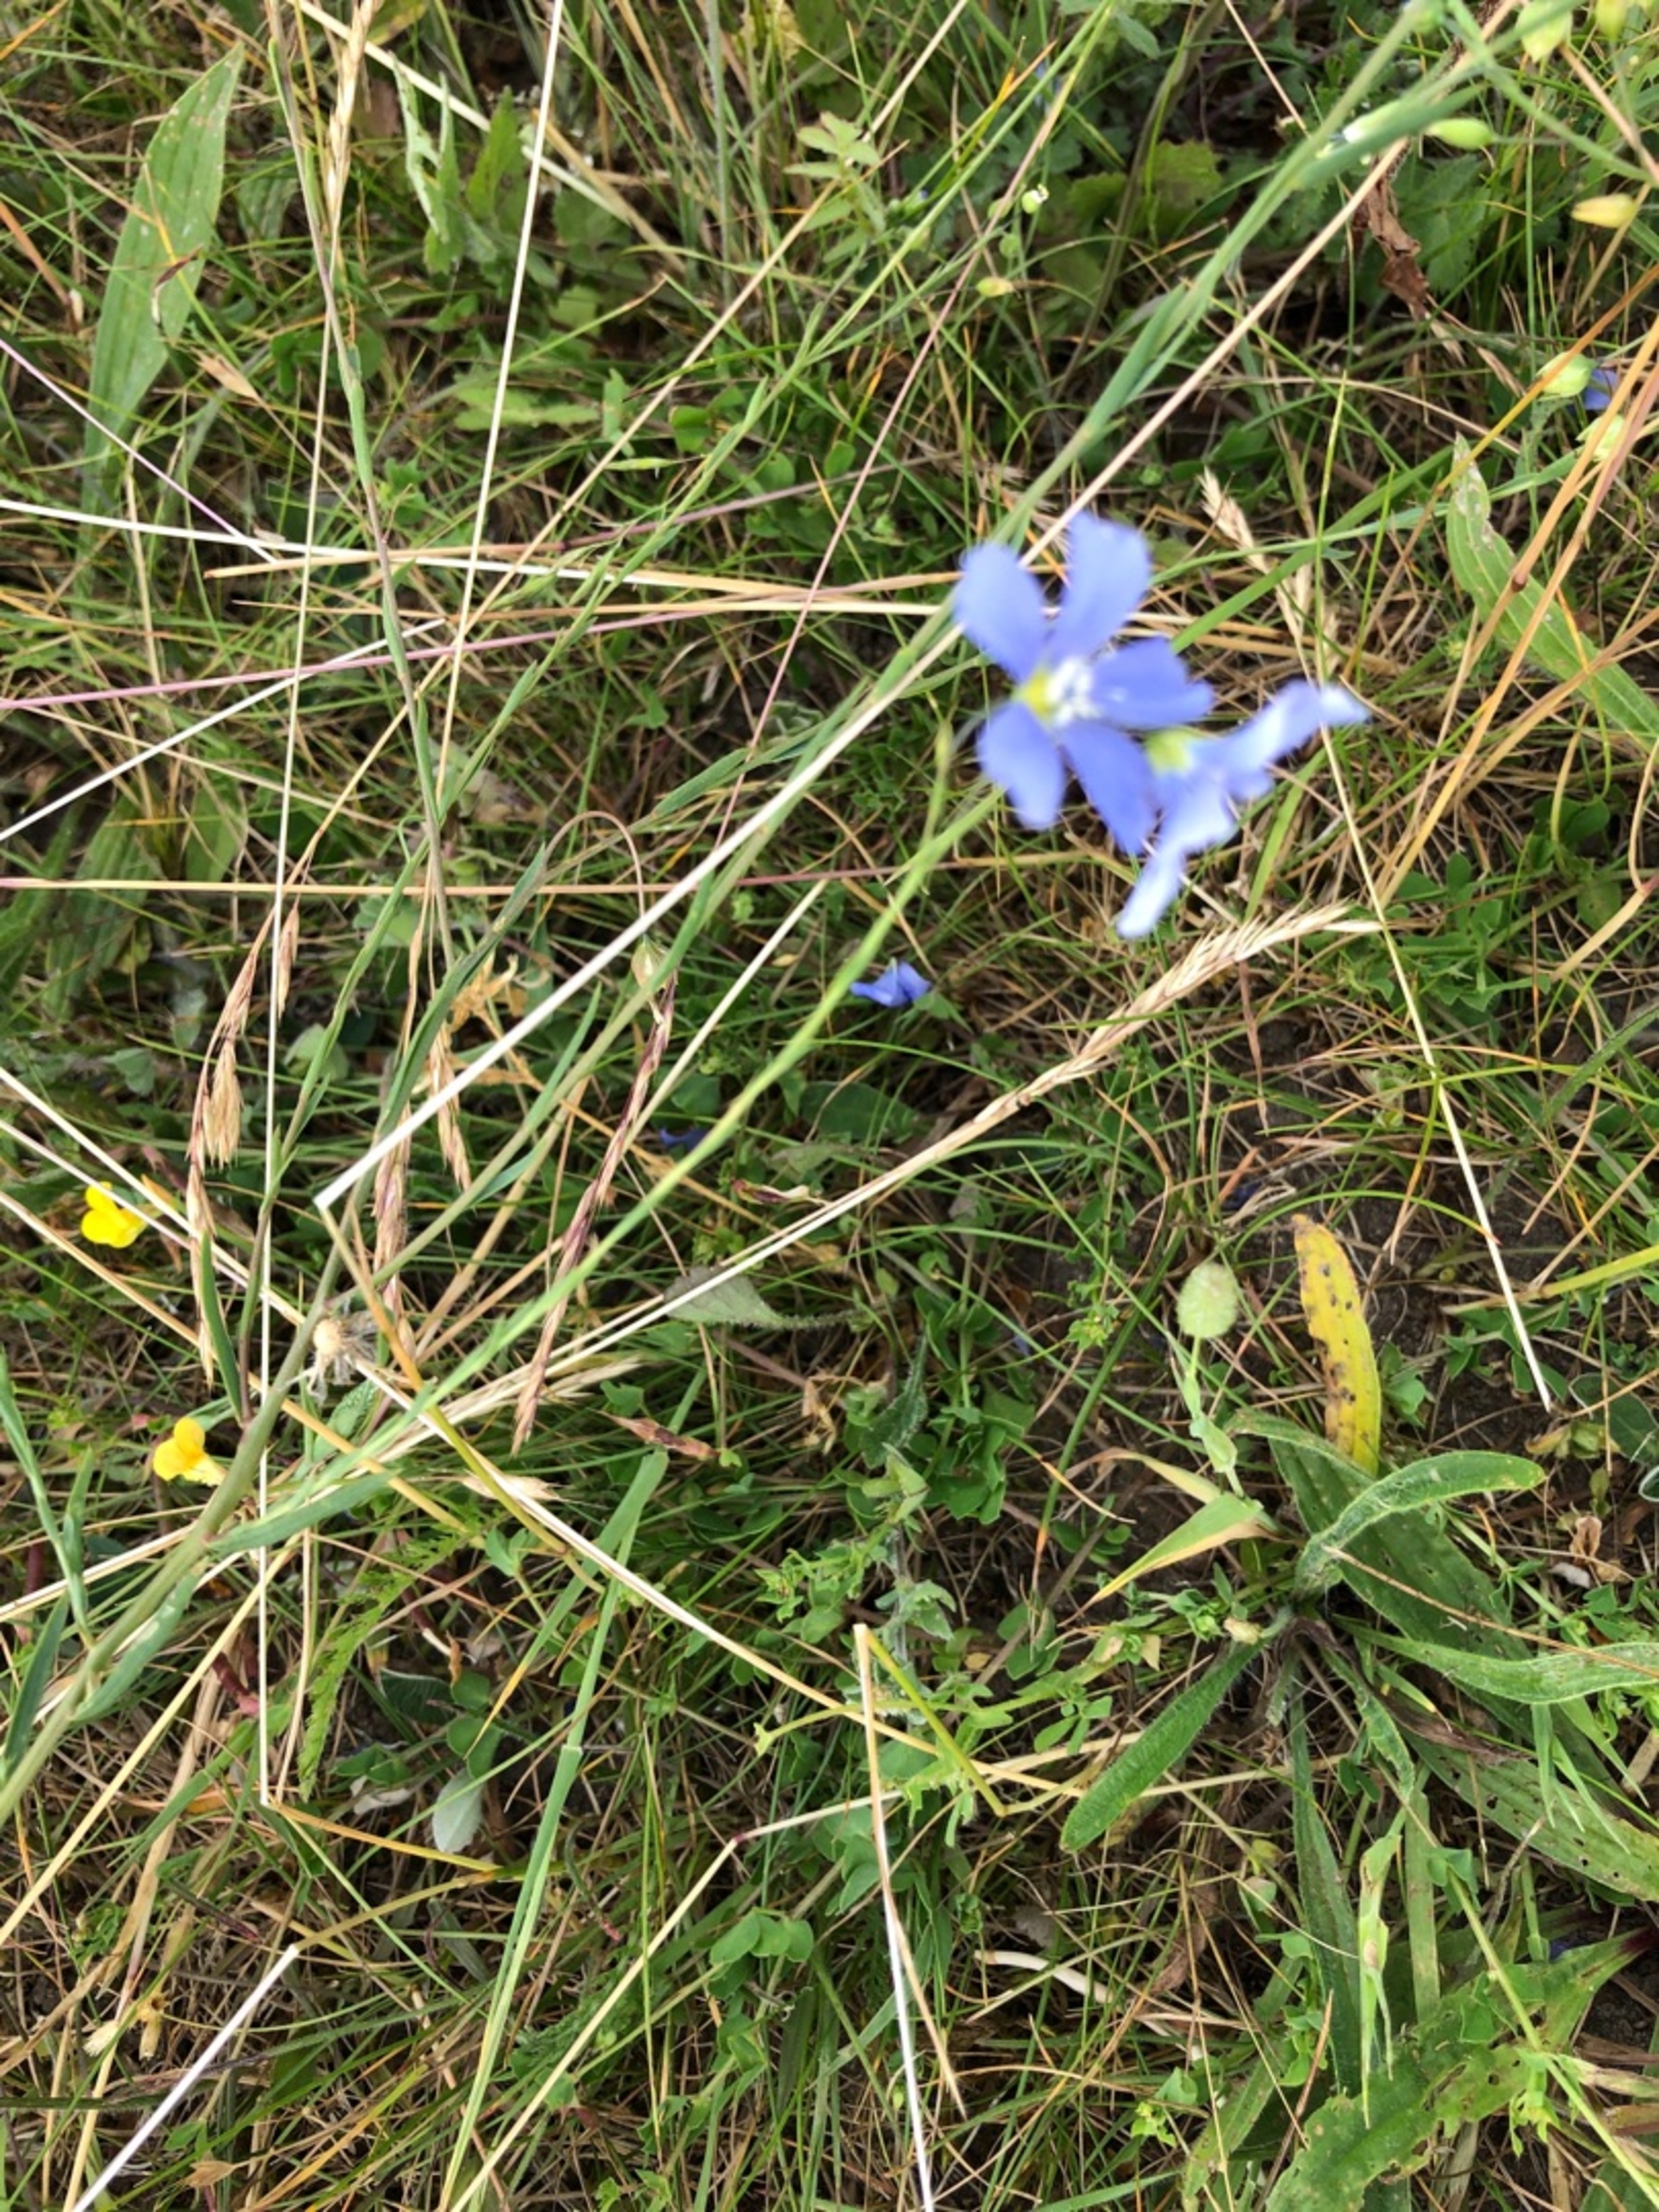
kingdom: Plantae
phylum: Tracheophyta
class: Magnoliopsida
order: Malpighiales
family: Linaceae
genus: Linum
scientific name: Linum austriacum
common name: Østrigsk hør
